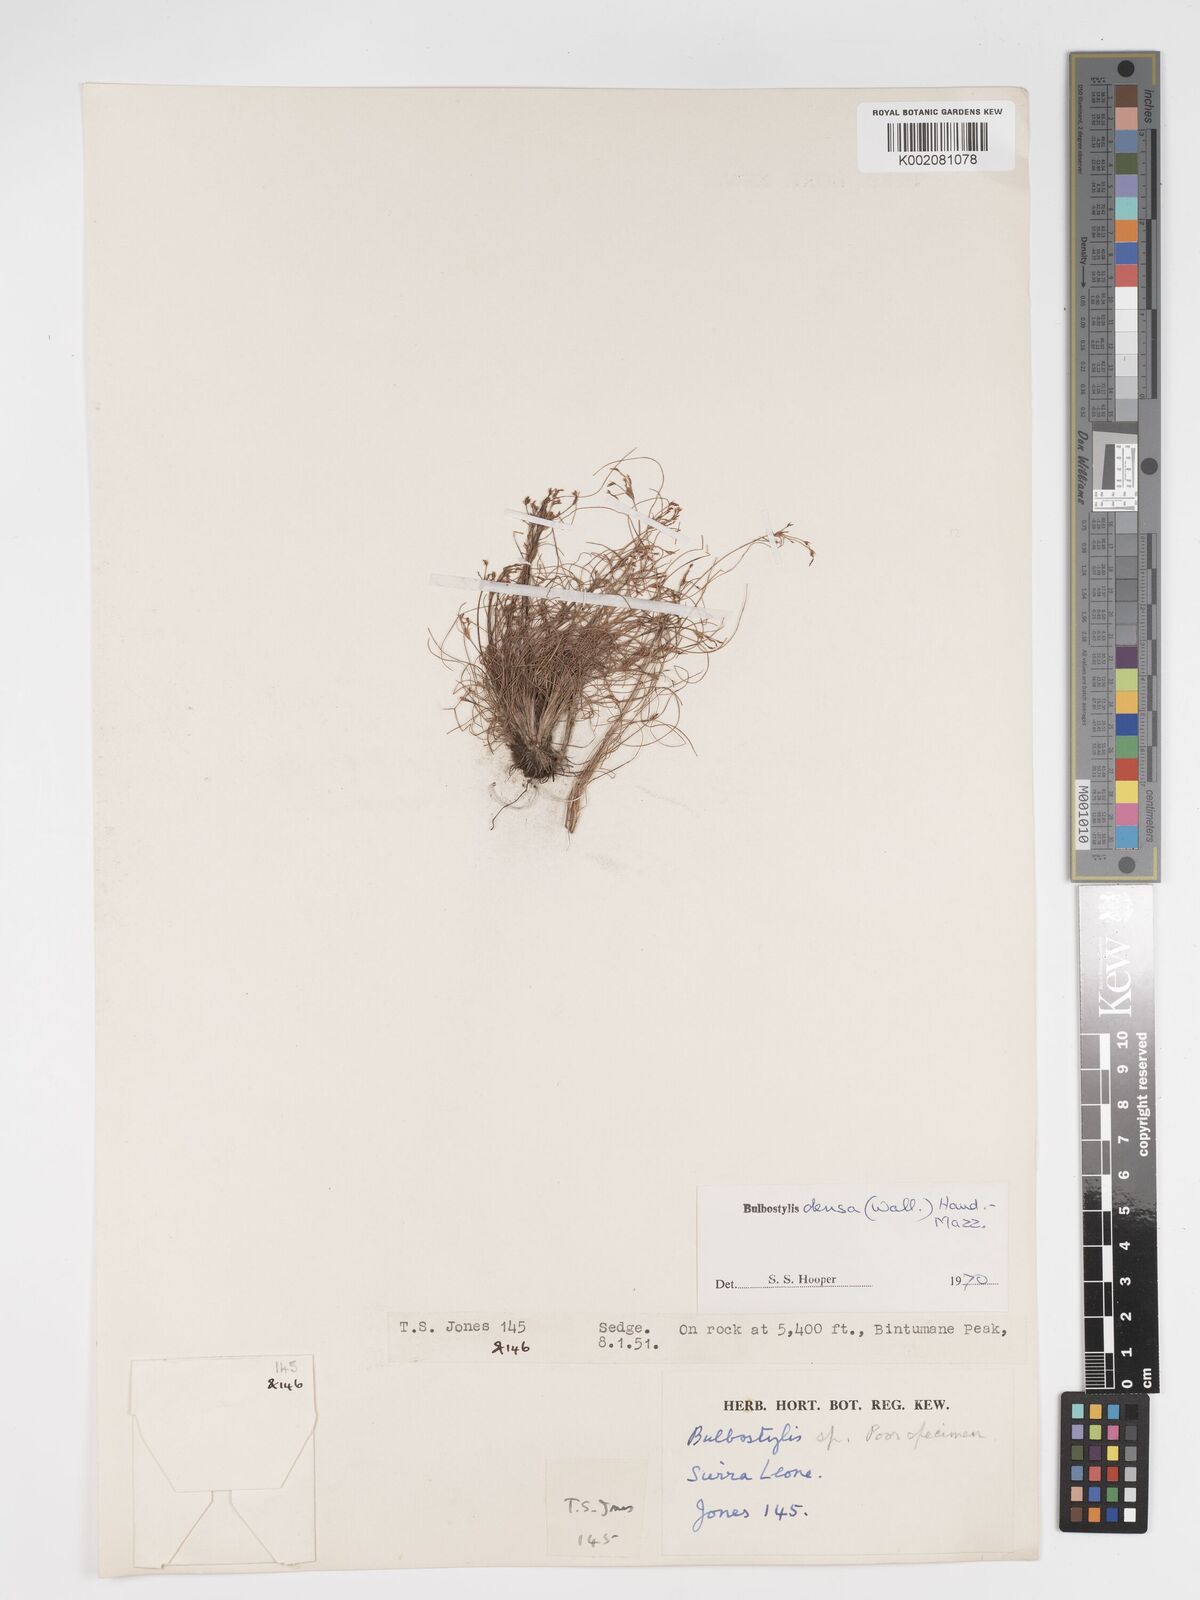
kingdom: Plantae
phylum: Tracheophyta
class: Liliopsida
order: Poales
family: Cyperaceae
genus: Bulbostylis
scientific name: Bulbostylis
